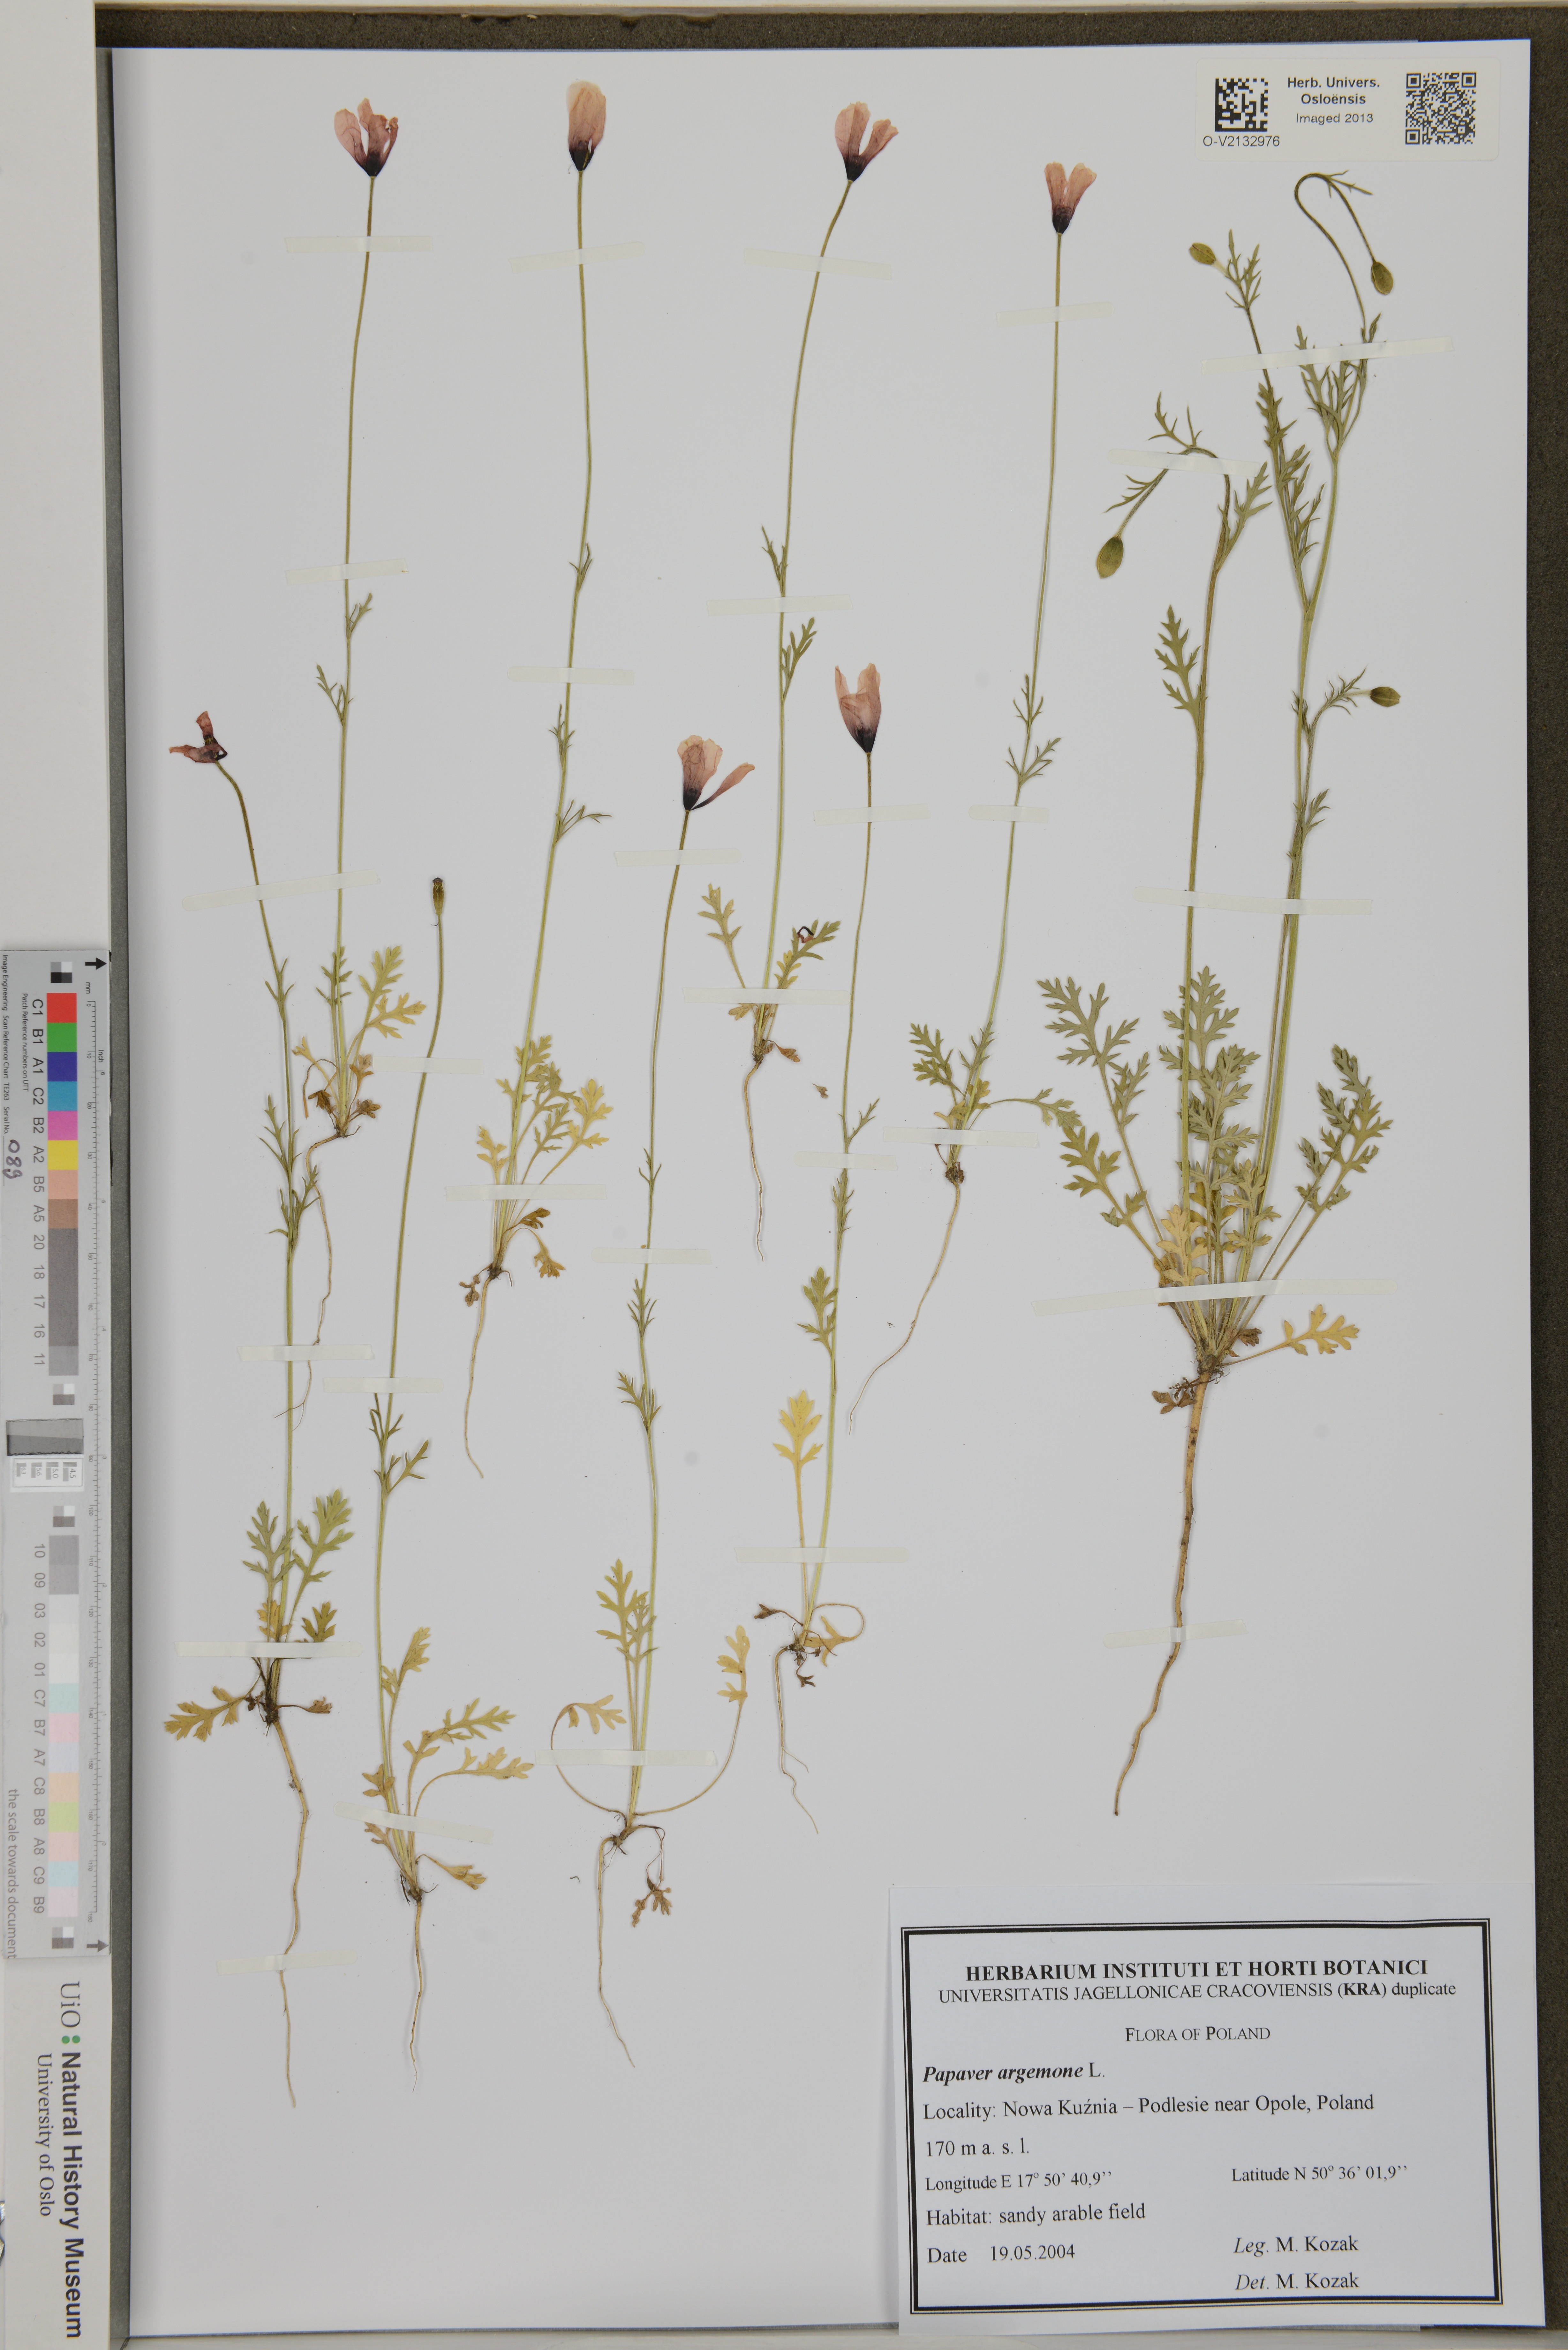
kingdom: Plantae
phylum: Tracheophyta
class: Magnoliopsida
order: Ranunculales
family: Papaveraceae
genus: Roemeria
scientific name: Roemeria argemone
